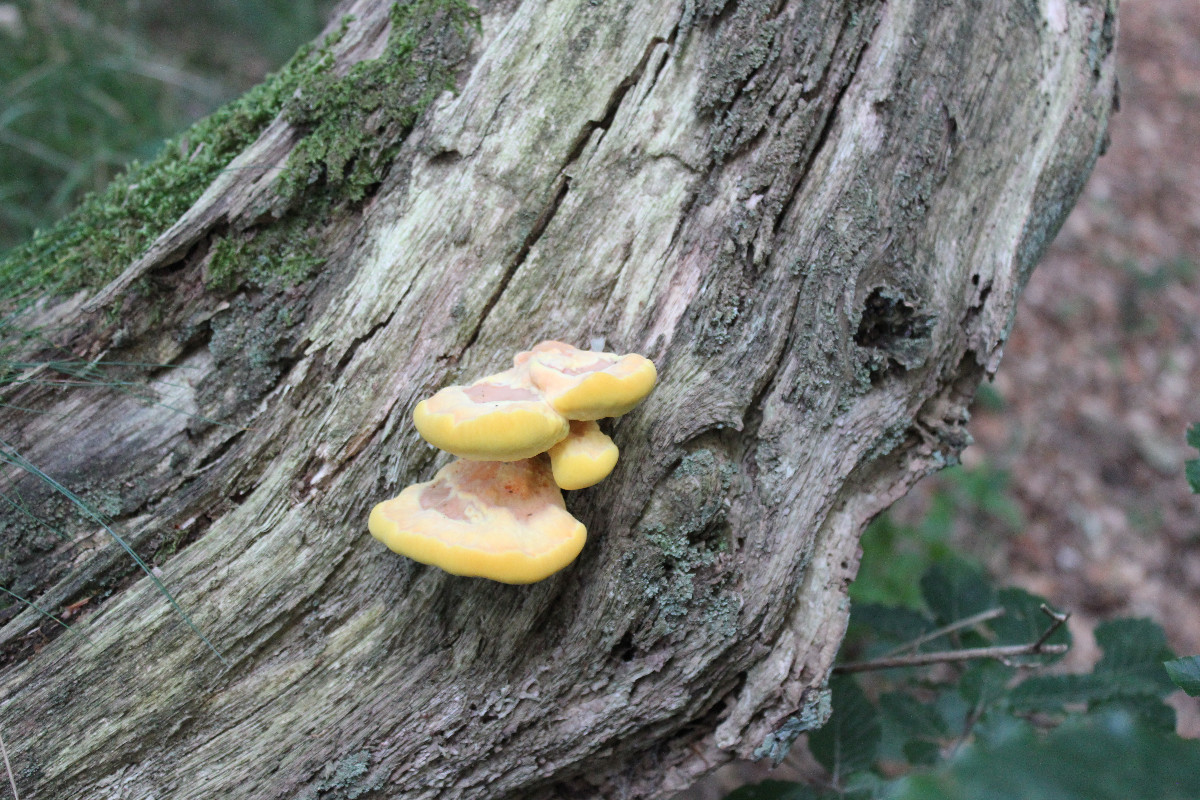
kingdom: Fungi
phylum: Basidiomycota
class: Agaricomycetes
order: Polyporales
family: Laetiporaceae
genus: Laetiporus
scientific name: Laetiporus sulphureus
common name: svovlporesvamp
